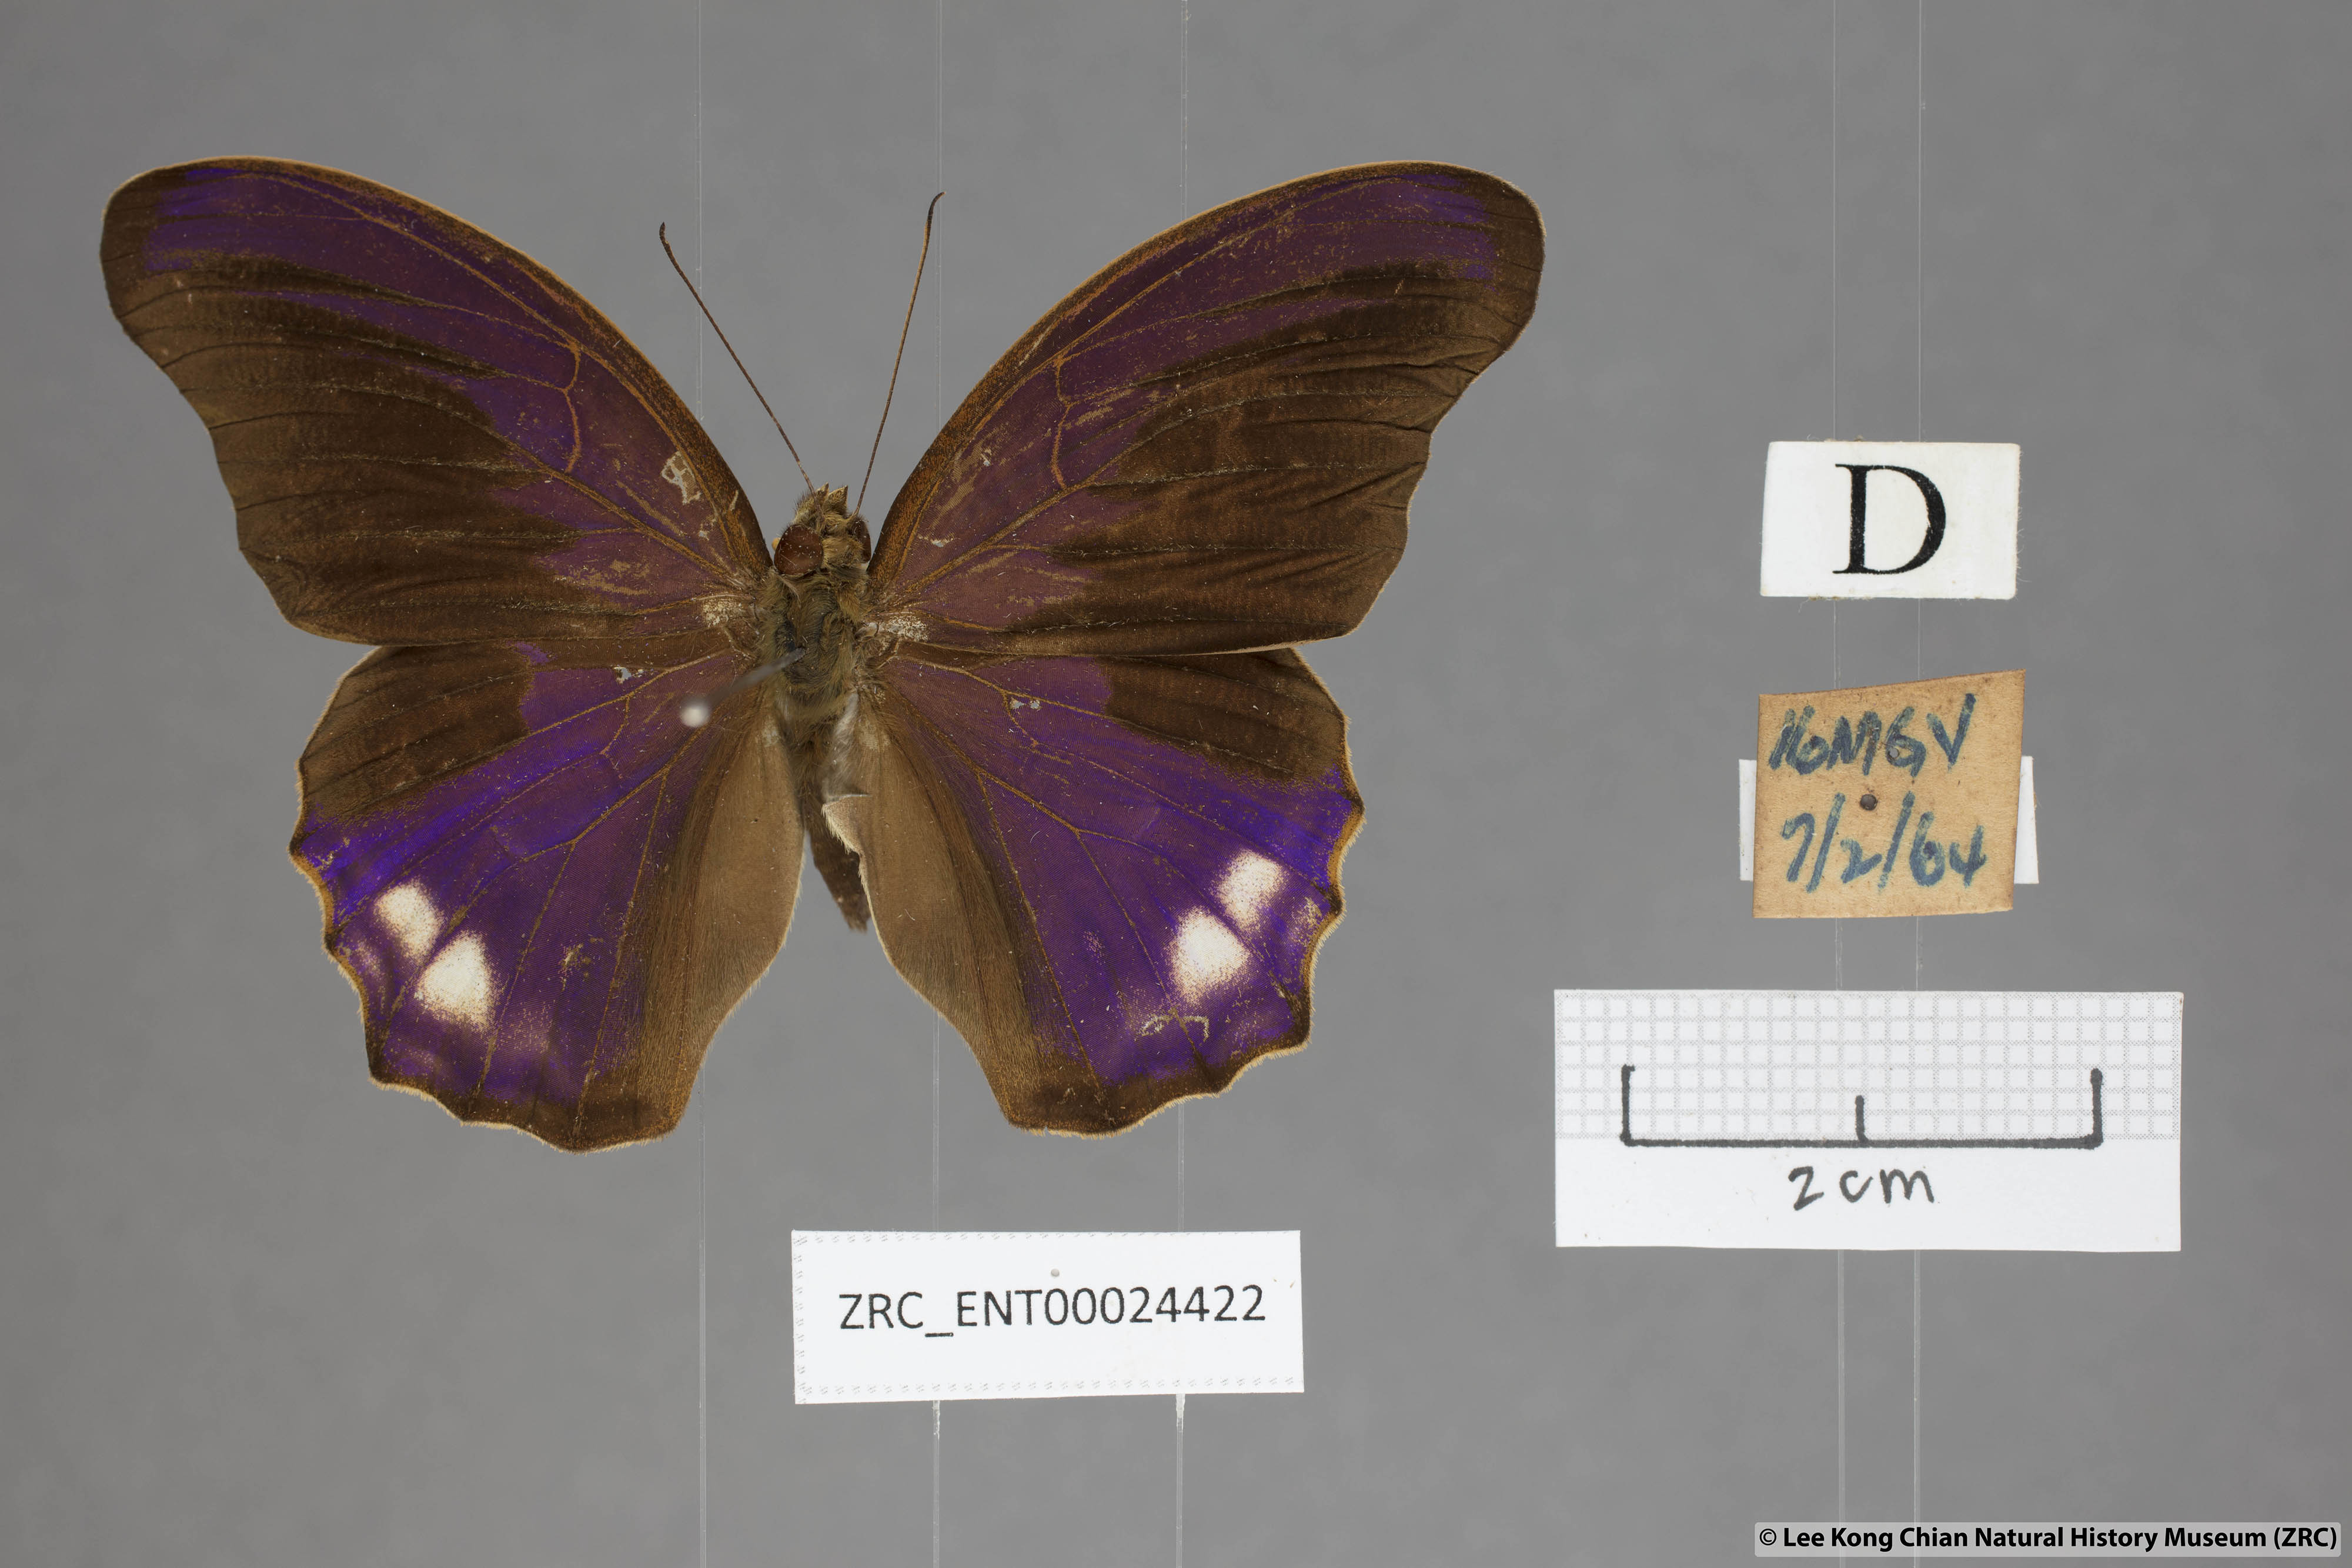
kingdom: Animalia
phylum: Arthropoda
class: Insecta
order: Lepidoptera
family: Nymphalidae
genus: Terinos
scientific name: Terinos atlita
